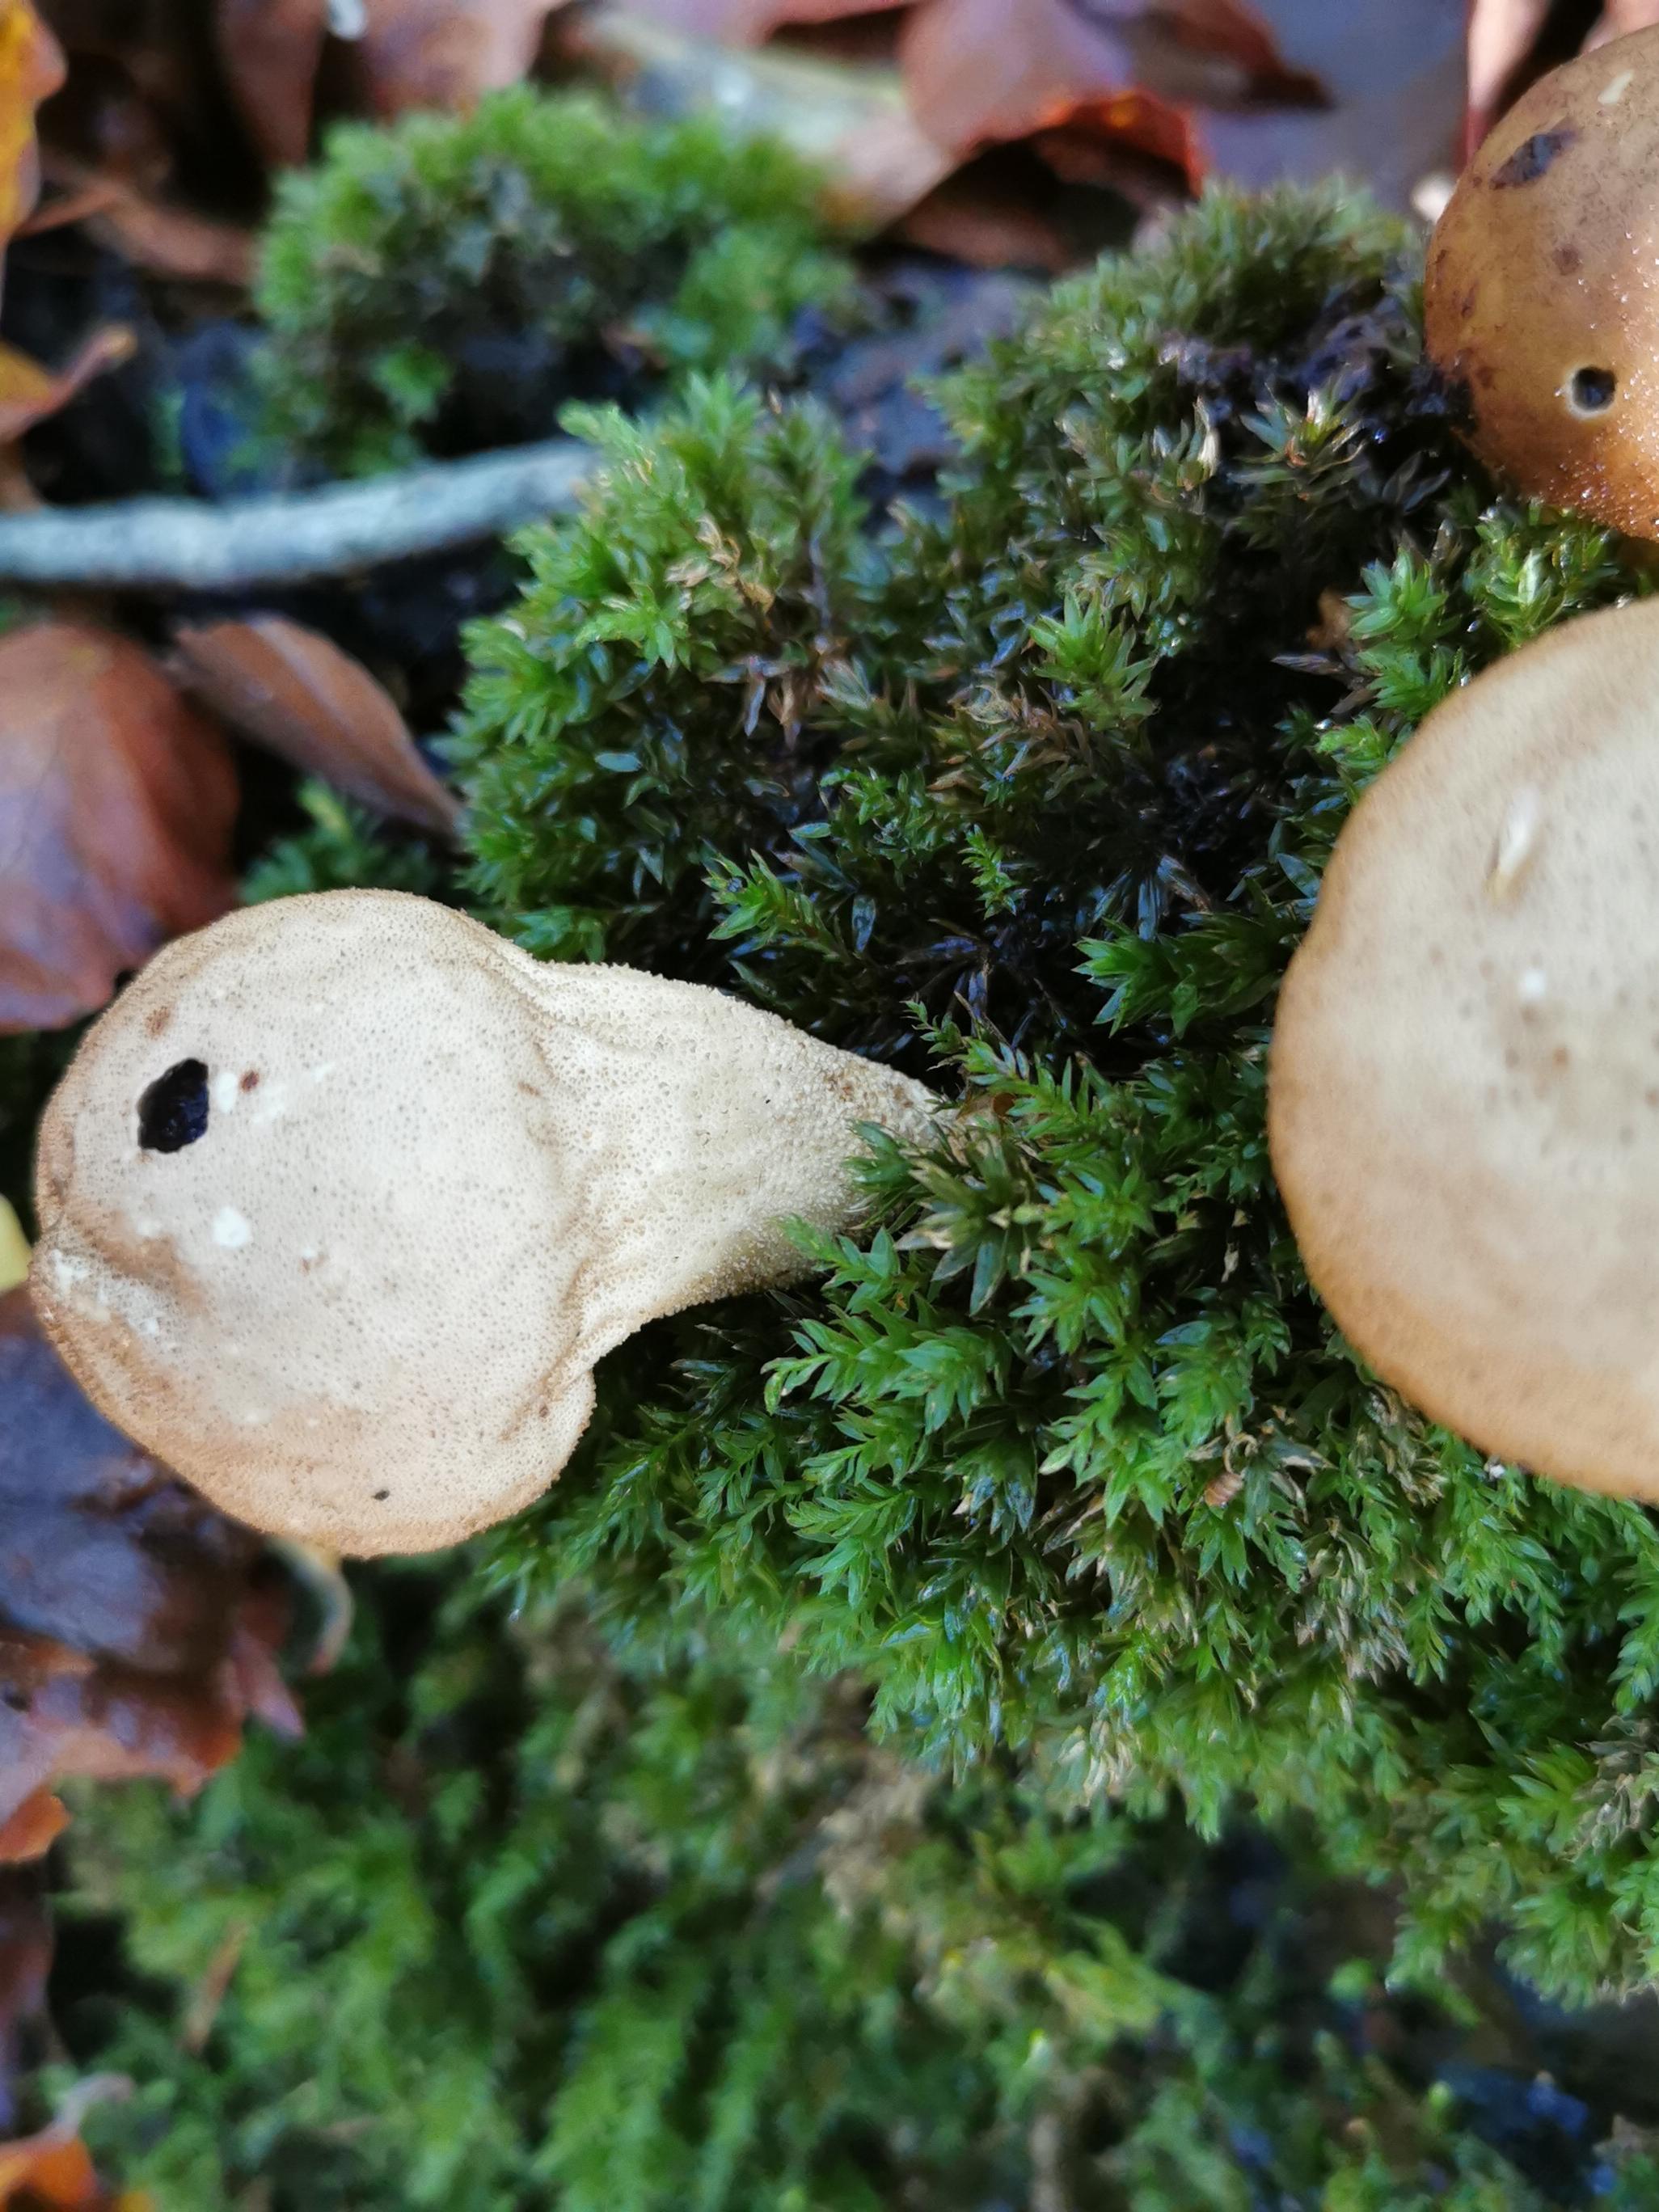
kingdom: Fungi
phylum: Basidiomycota
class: Agaricomycetes
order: Agaricales
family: Lycoperdaceae
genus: Apioperdon
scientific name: Apioperdon pyriforme
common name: pære-støvbold
